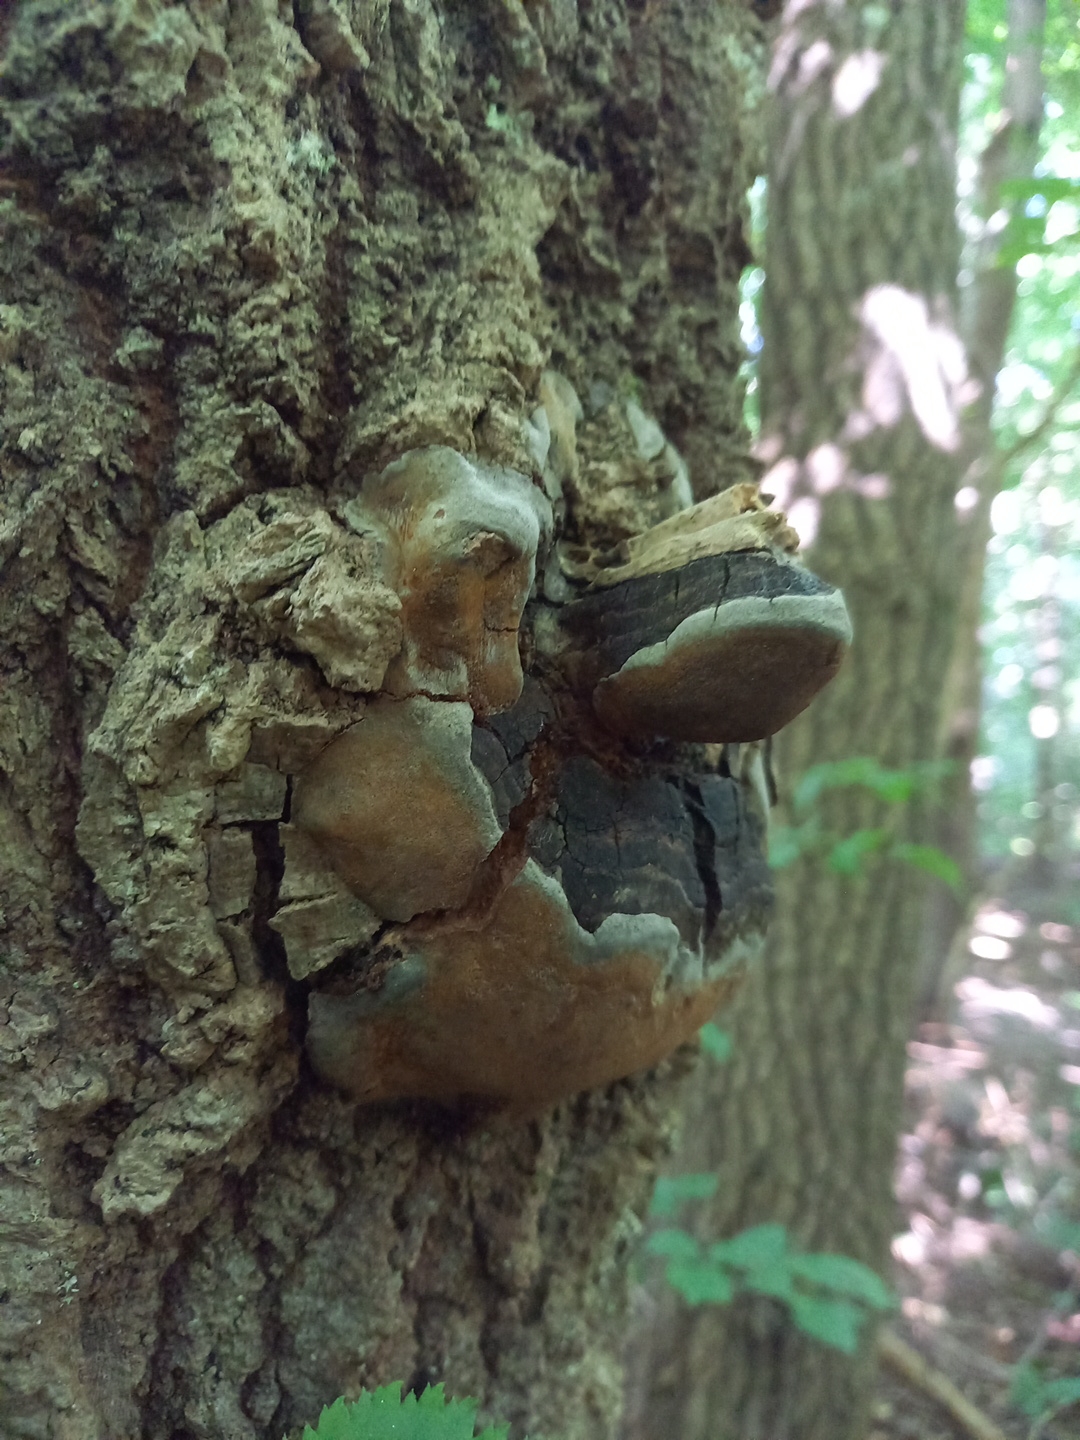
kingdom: Fungi
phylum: Basidiomycota
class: Agaricomycetes
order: Hymenochaetales
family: Hymenochaetaceae
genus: Phellinus
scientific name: Phellinus tremulae
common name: aspe-ildporesvamp
